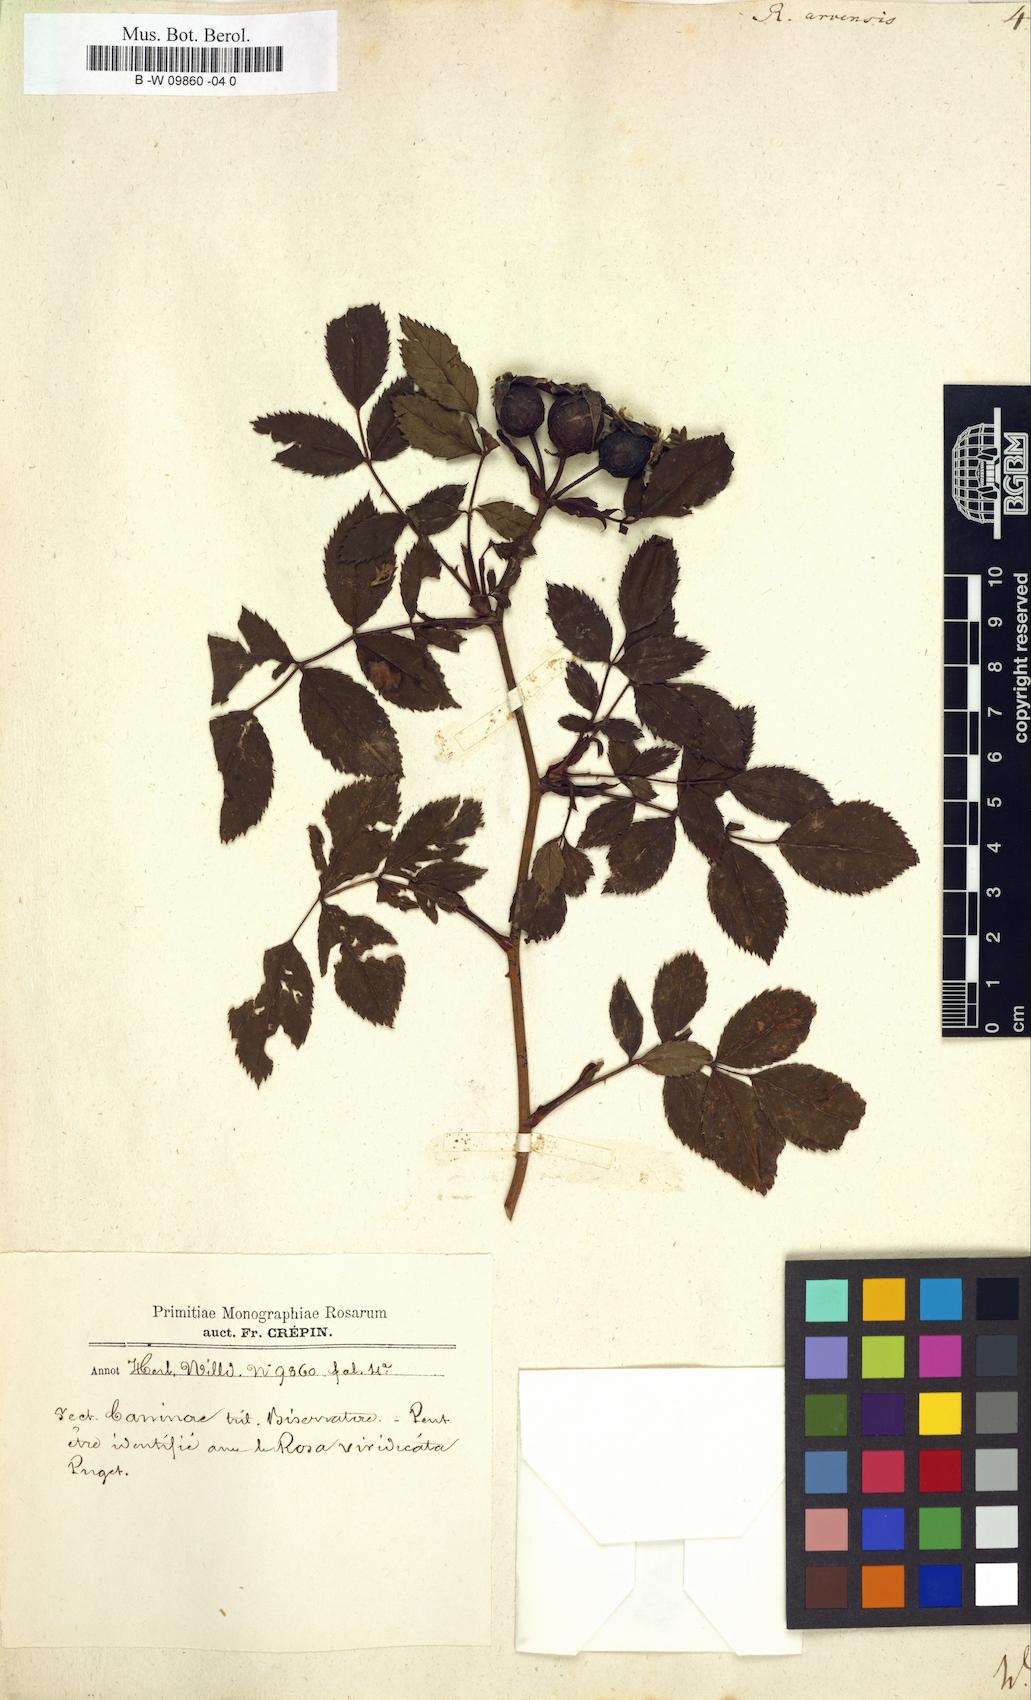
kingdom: Plantae
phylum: Tracheophyta
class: Magnoliopsida
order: Rosales
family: Rosaceae
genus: Rosa
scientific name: Rosa arvensis
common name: Field rose
